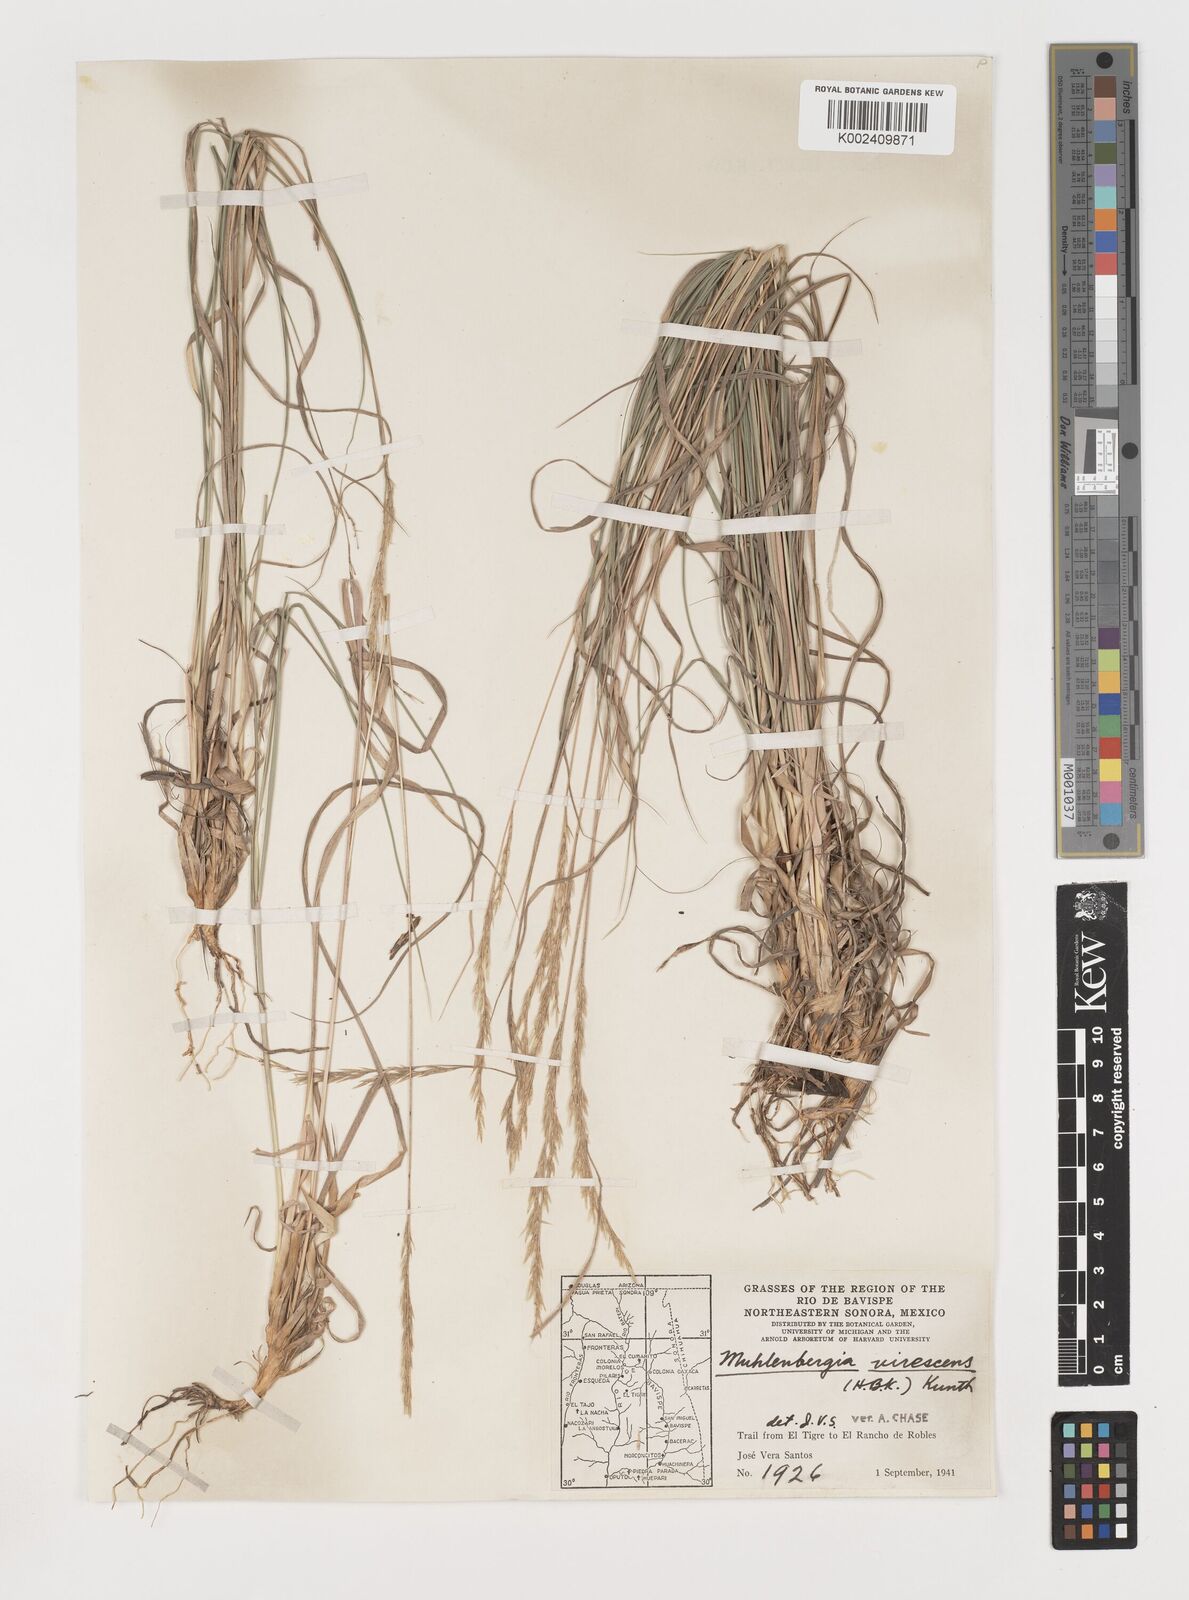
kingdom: Plantae
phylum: Tracheophyta
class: Liliopsida
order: Poales
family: Poaceae
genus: Muhlenbergia
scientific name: Muhlenbergia virescens
